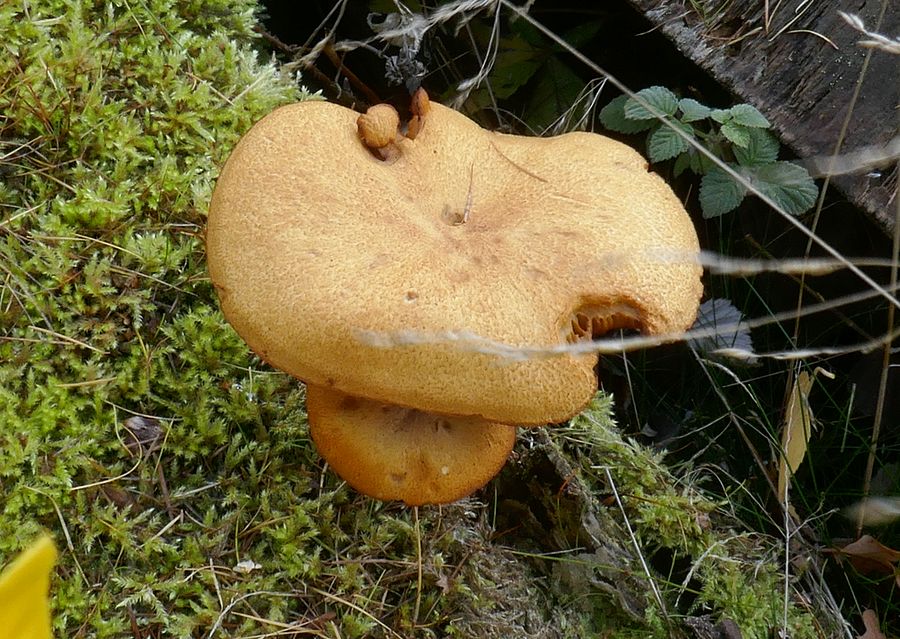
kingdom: Fungi
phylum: Basidiomycota
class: Agaricomycetes
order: Agaricales
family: Tricholomataceae
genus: Tricholomopsis
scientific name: Tricholomopsis rutilans
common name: purpur-væbnerhat
